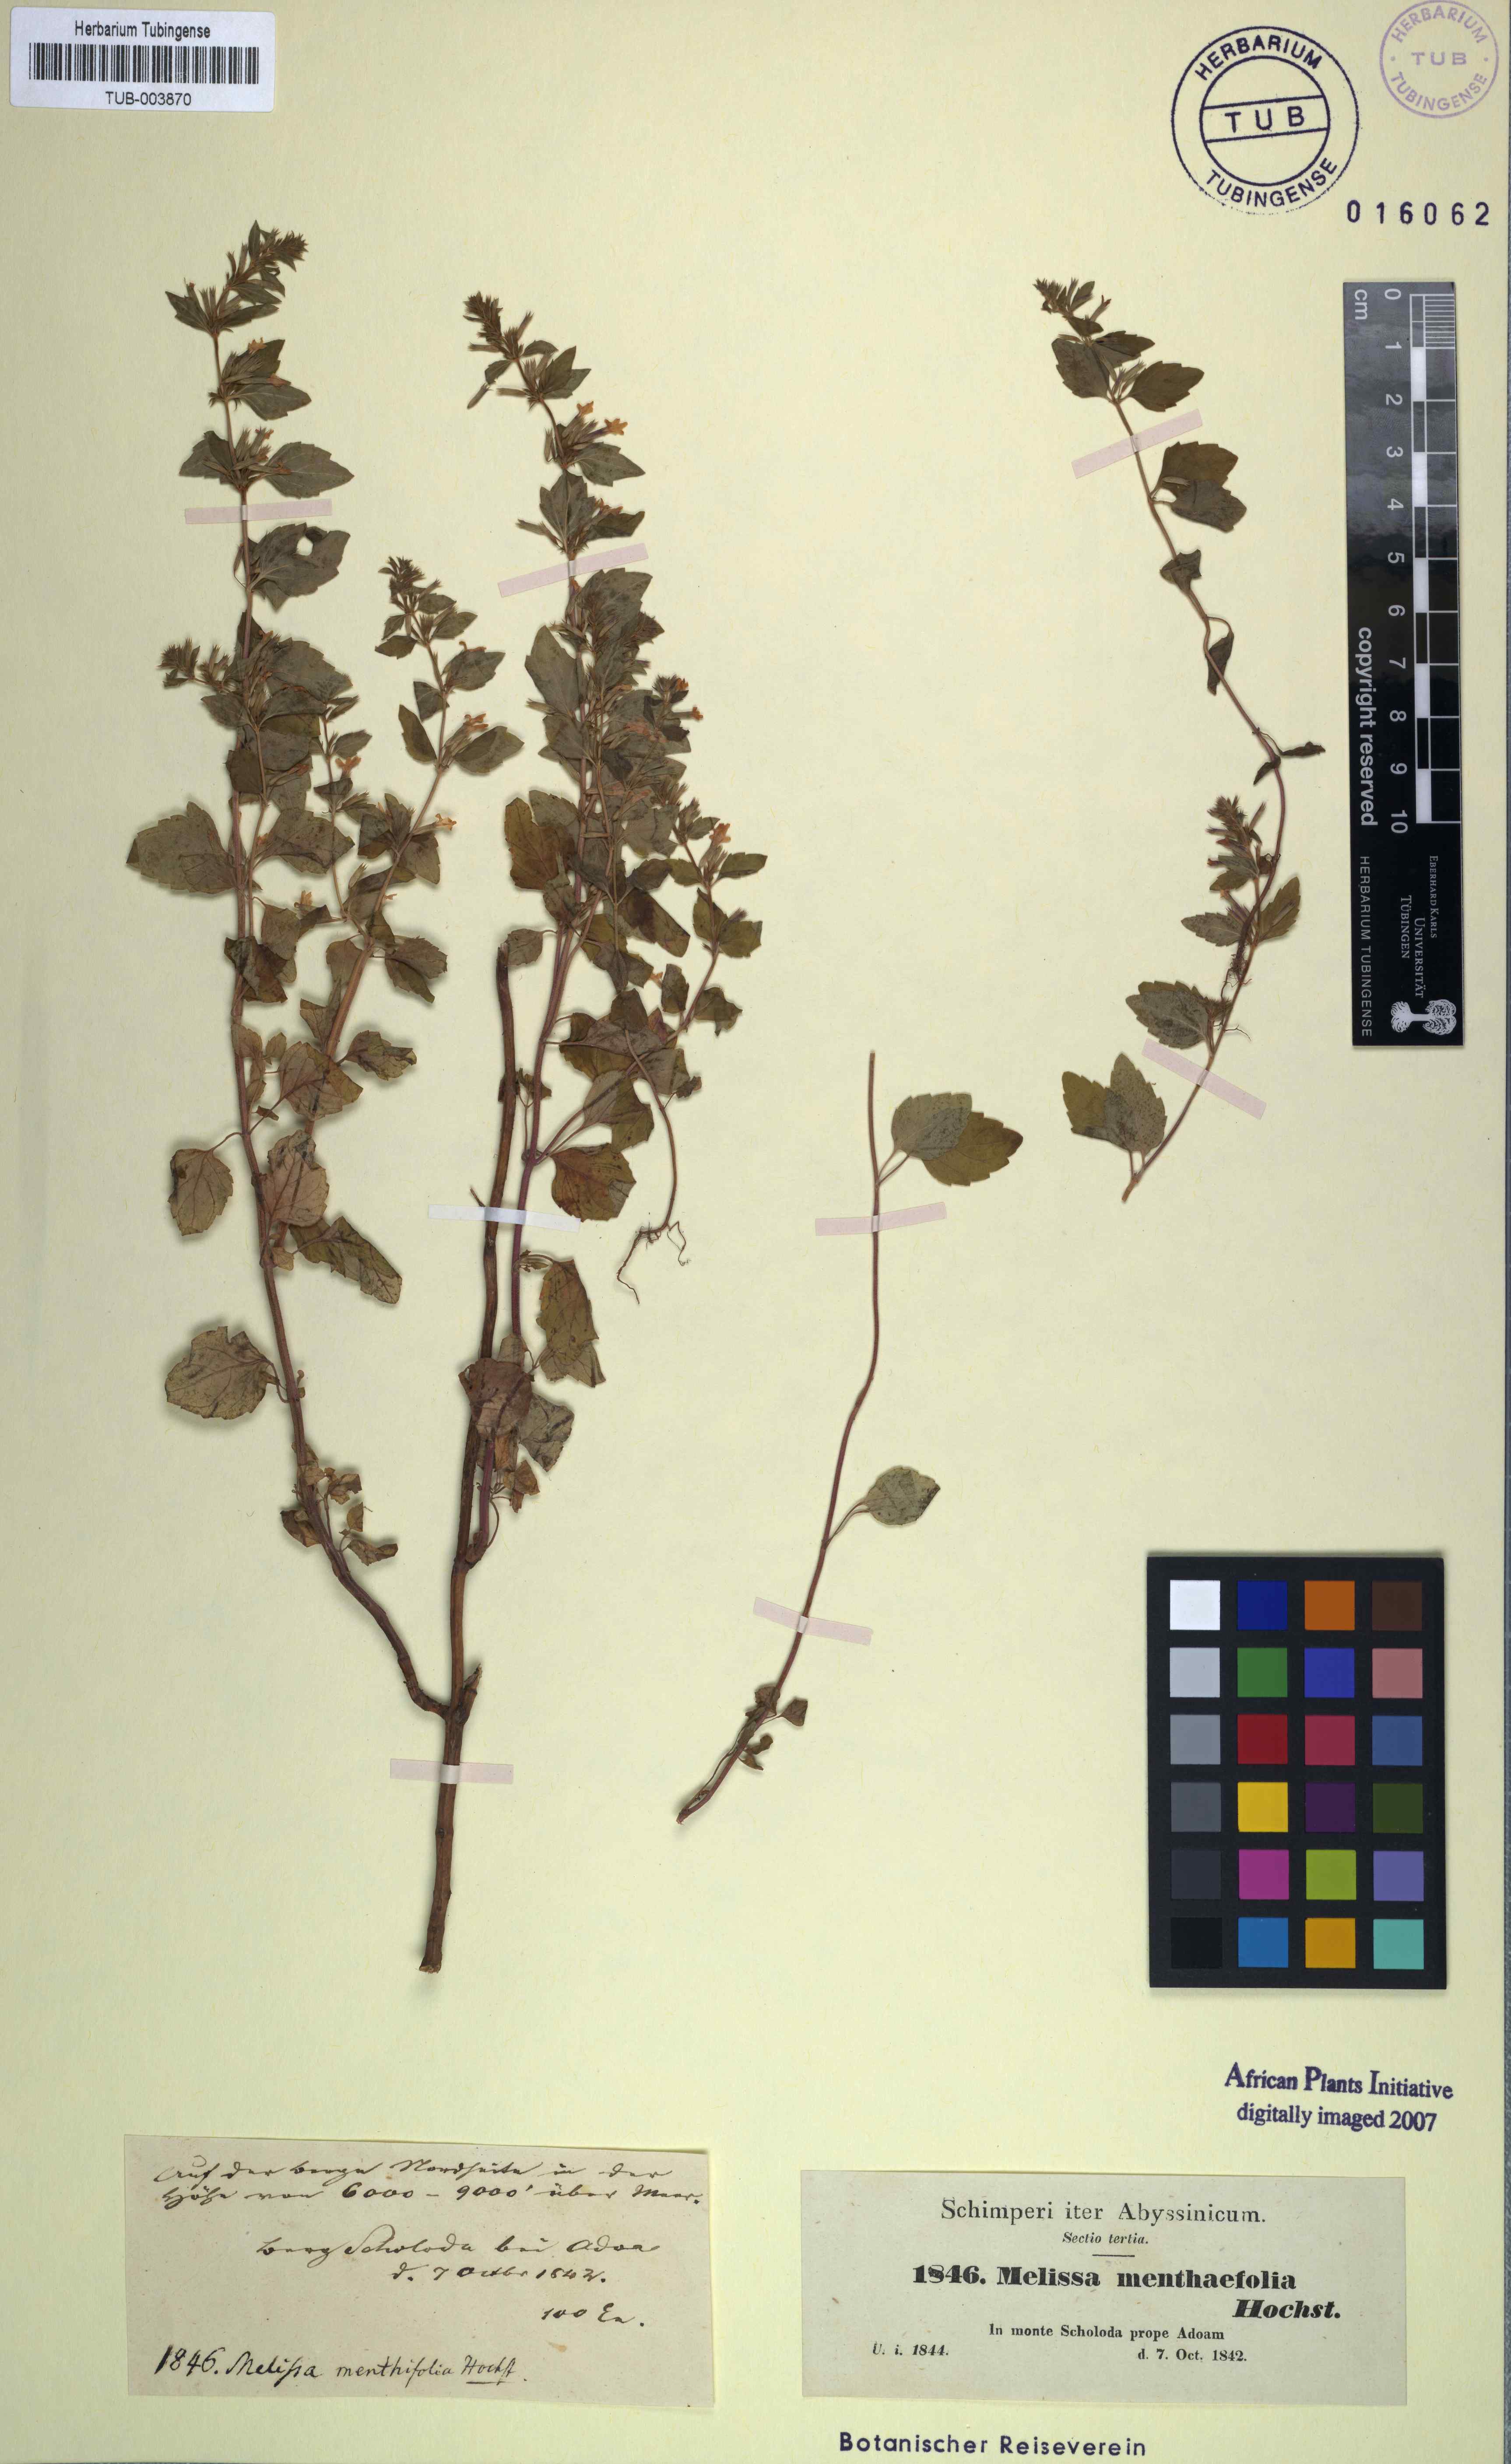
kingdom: Plantae
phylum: Tracheophyta
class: Magnoliopsida
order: Lamiales
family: Lamiaceae
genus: Melissa
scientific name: Melissa
